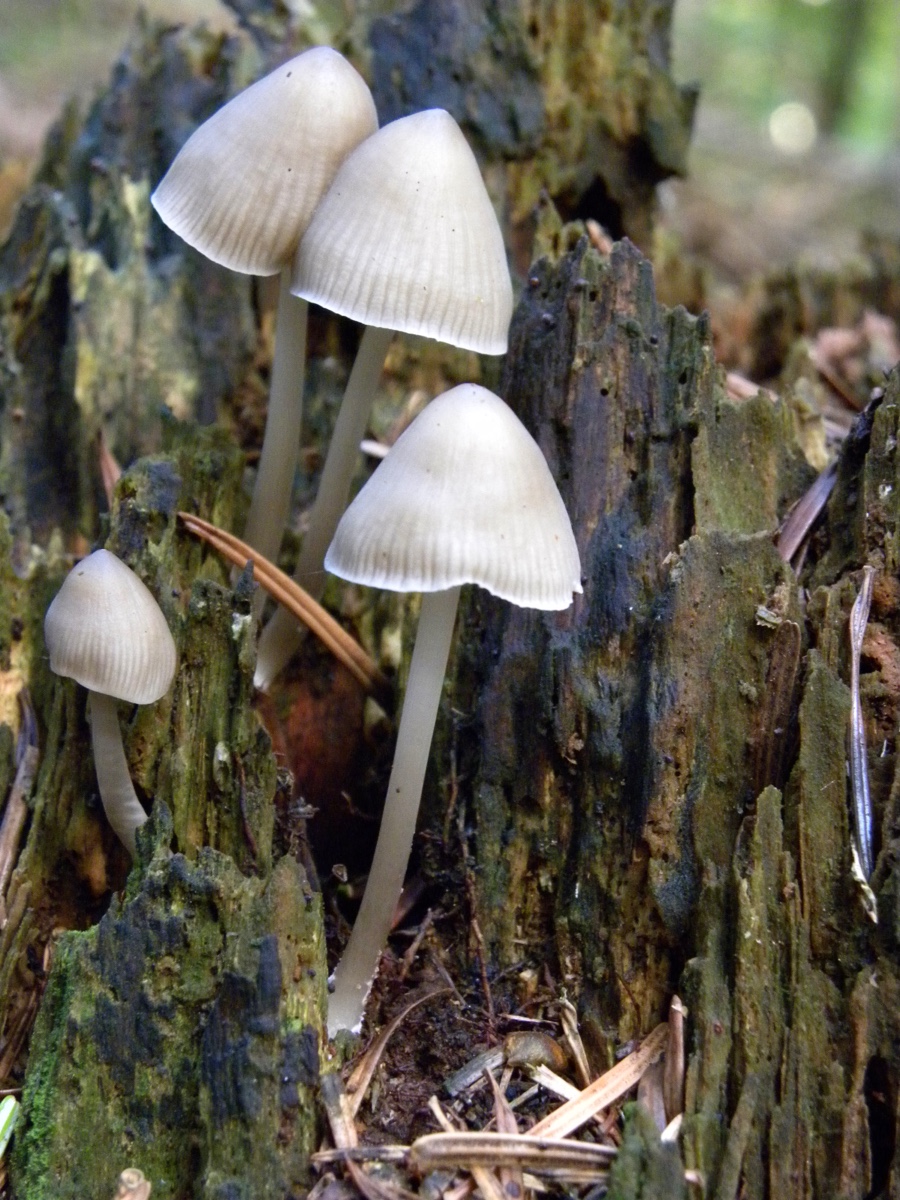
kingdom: Fungi
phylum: Basidiomycota
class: Agaricomycetes
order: Agaricales
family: Mycenaceae
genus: Mycena
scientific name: Mycena galericulata
